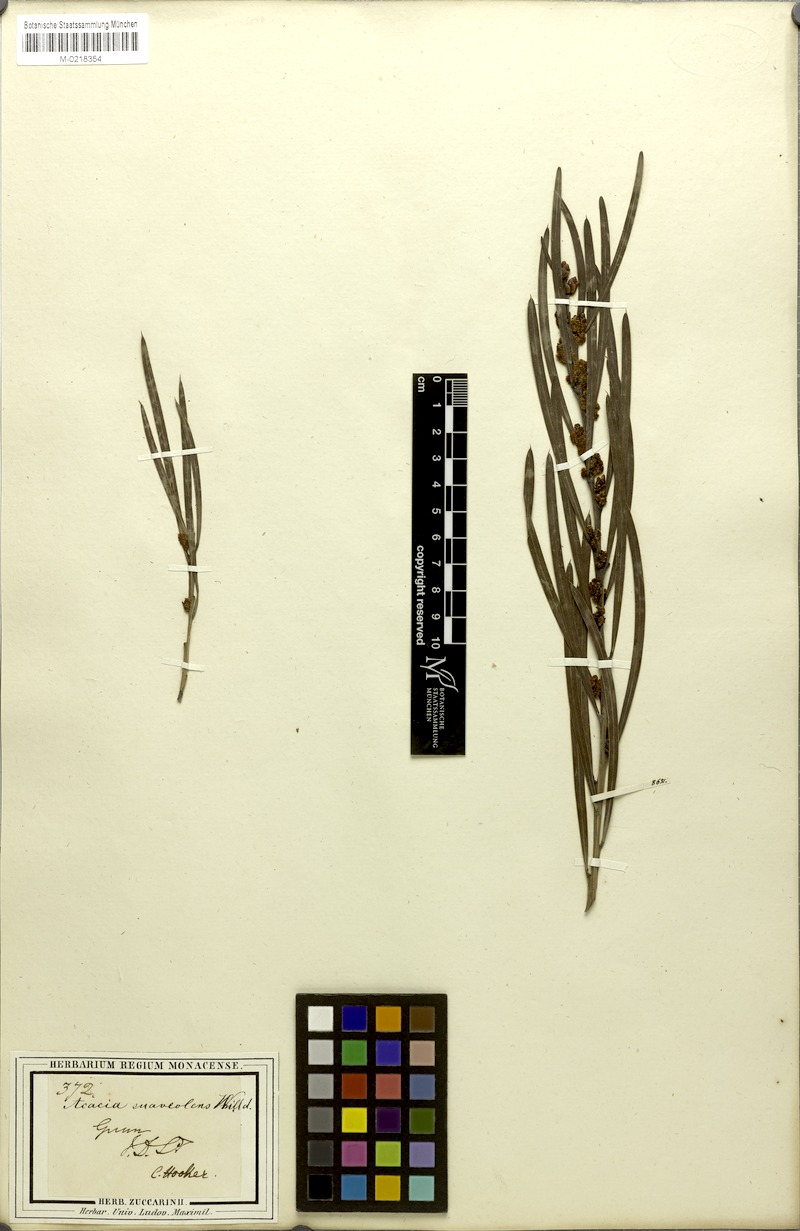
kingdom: Plantae
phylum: Tracheophyta
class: Magnoliopsida
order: Fabales
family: Fabaceae
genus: Acacia
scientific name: Acacia suaveolens
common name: Sweet acacia
